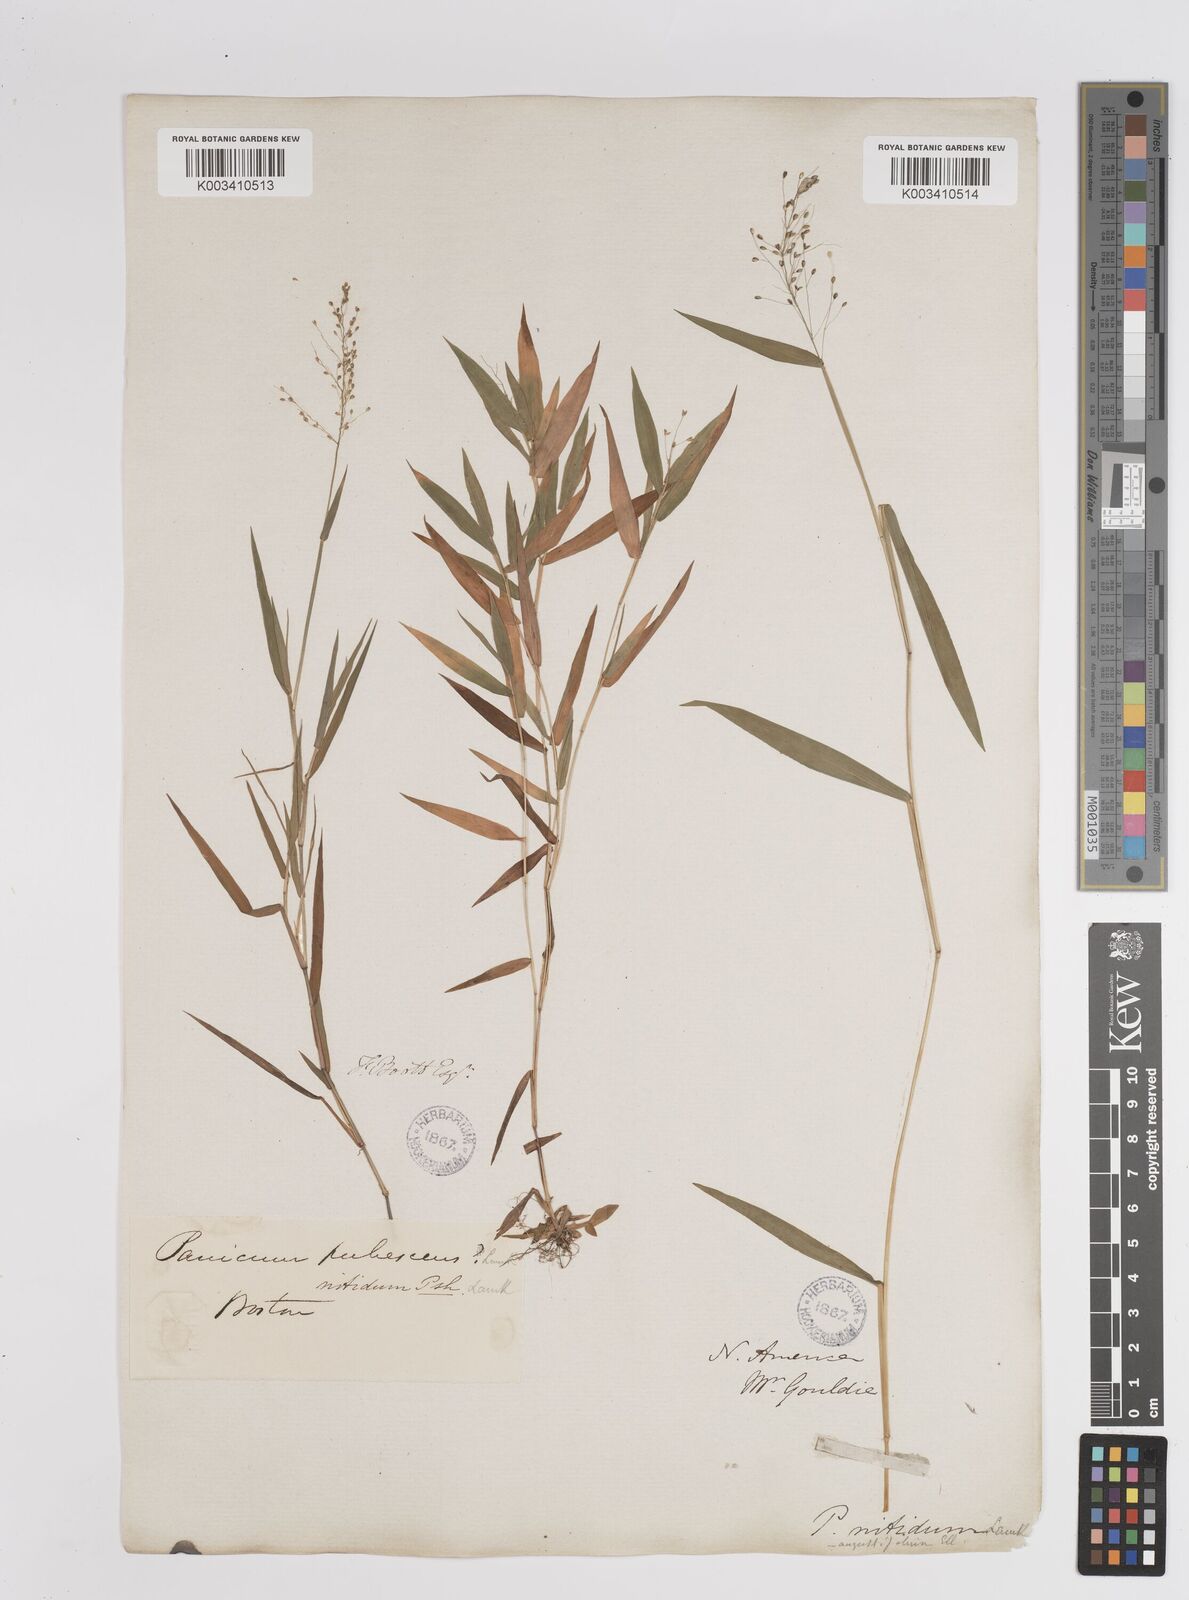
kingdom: Plantae
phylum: Tracheophyta
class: Liliopsida
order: Poales
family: Poaceae
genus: Dichanthelium
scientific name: Dichanthelium polyanthes
